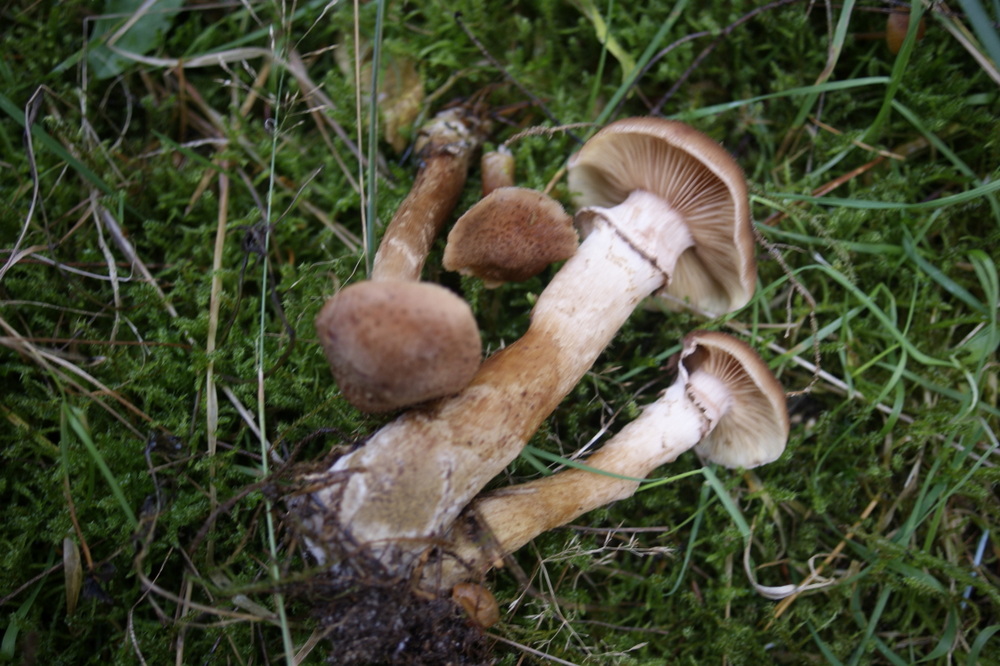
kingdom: Fungi
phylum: Basidiomycota
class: Agaricomycetes
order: Agaricales
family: Physalacriaceae
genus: Armillaria
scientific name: Armillaria ostoyae
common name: mørk honningsvamp
